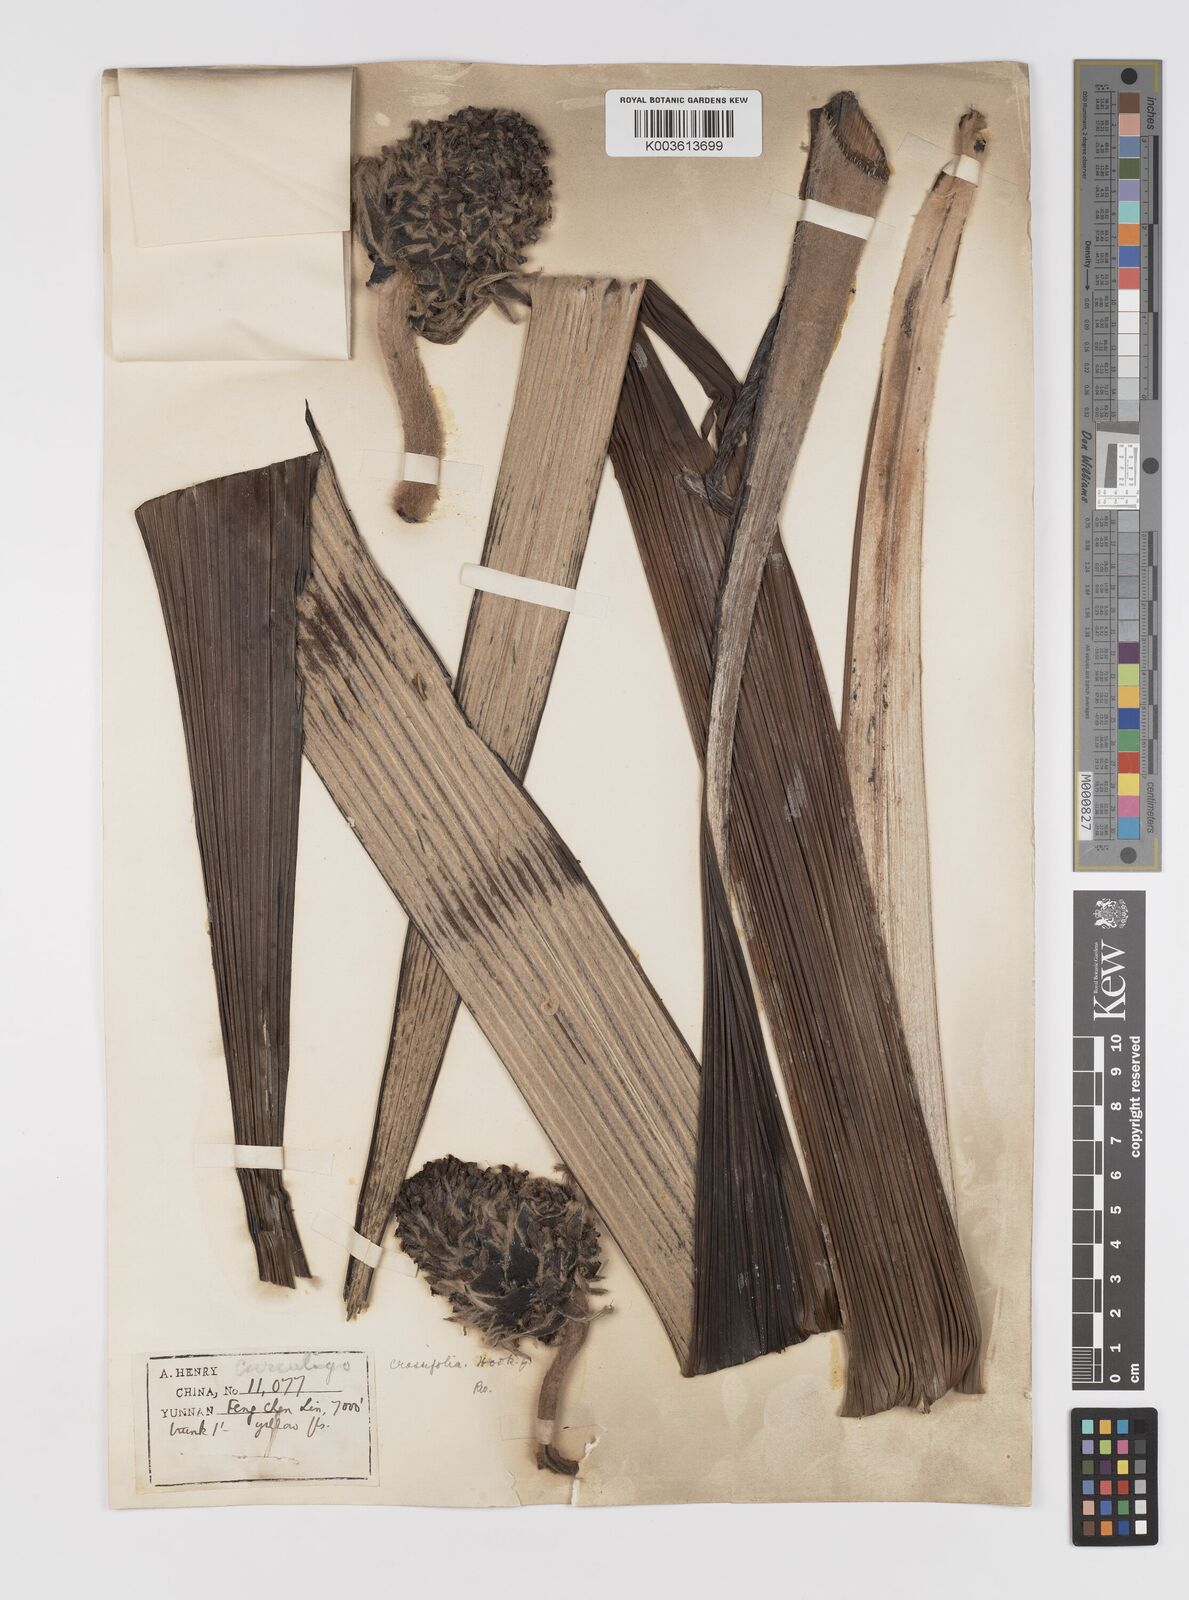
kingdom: Plantae
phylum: Tracheophyta
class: Liliopsida
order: Asparagales
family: Hypoxidaceae
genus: Curculigo
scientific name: Curculigo crassifolia
